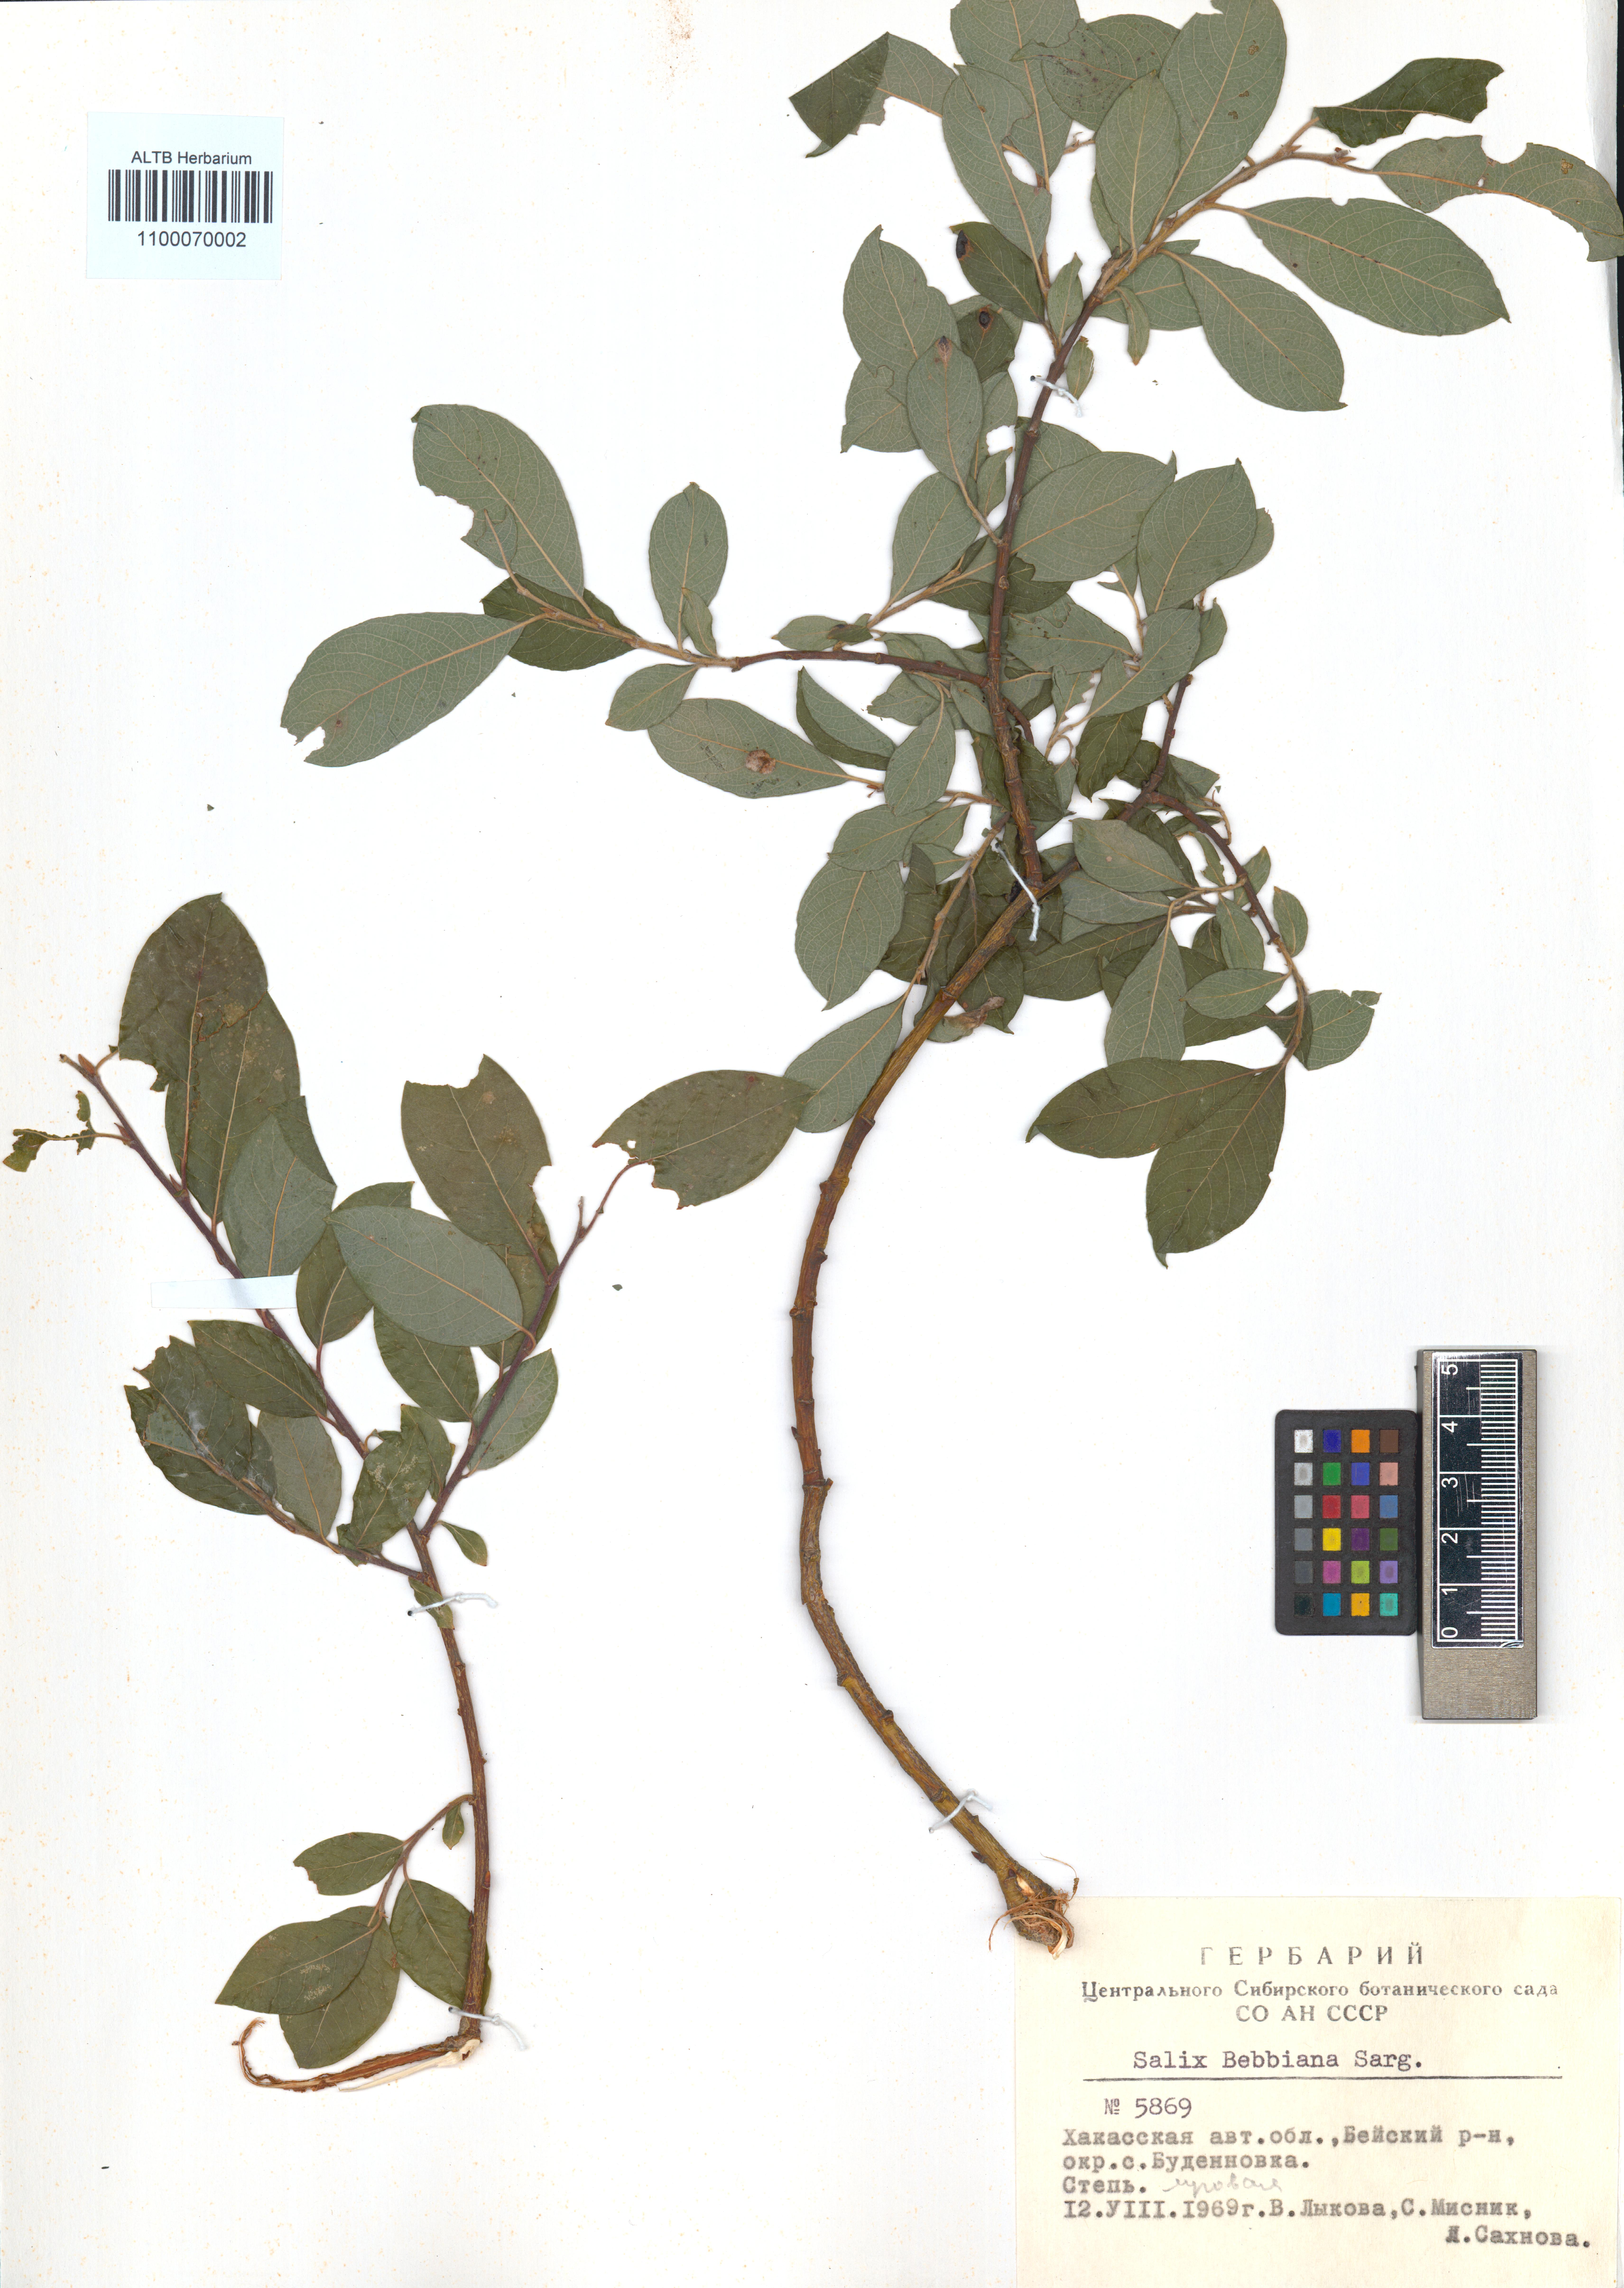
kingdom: Plantae
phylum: Tracheophyta
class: Magnoliopsida
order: Malpighiales
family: Salicaceae
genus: Salix
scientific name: Salix bebbiana
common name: Bebb's willow
